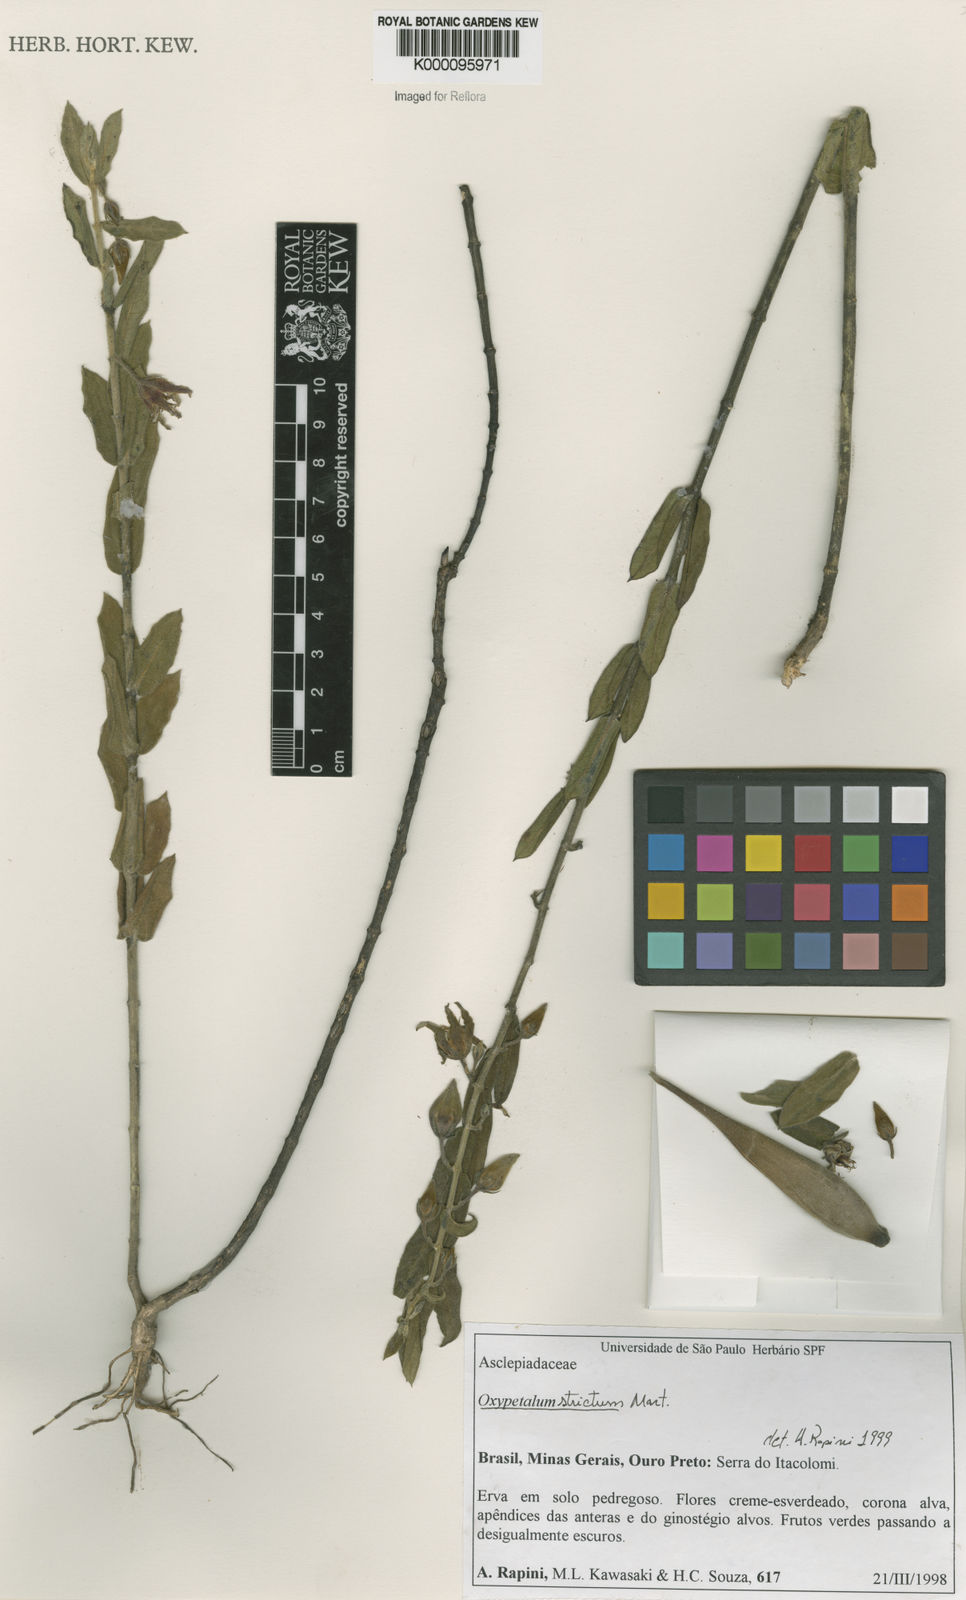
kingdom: Plantae
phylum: Tracheophyta
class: Magnoliopsida
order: Gentianales
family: Apocynaceae
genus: Oxypetalum
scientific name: Oxypetalum strictum
